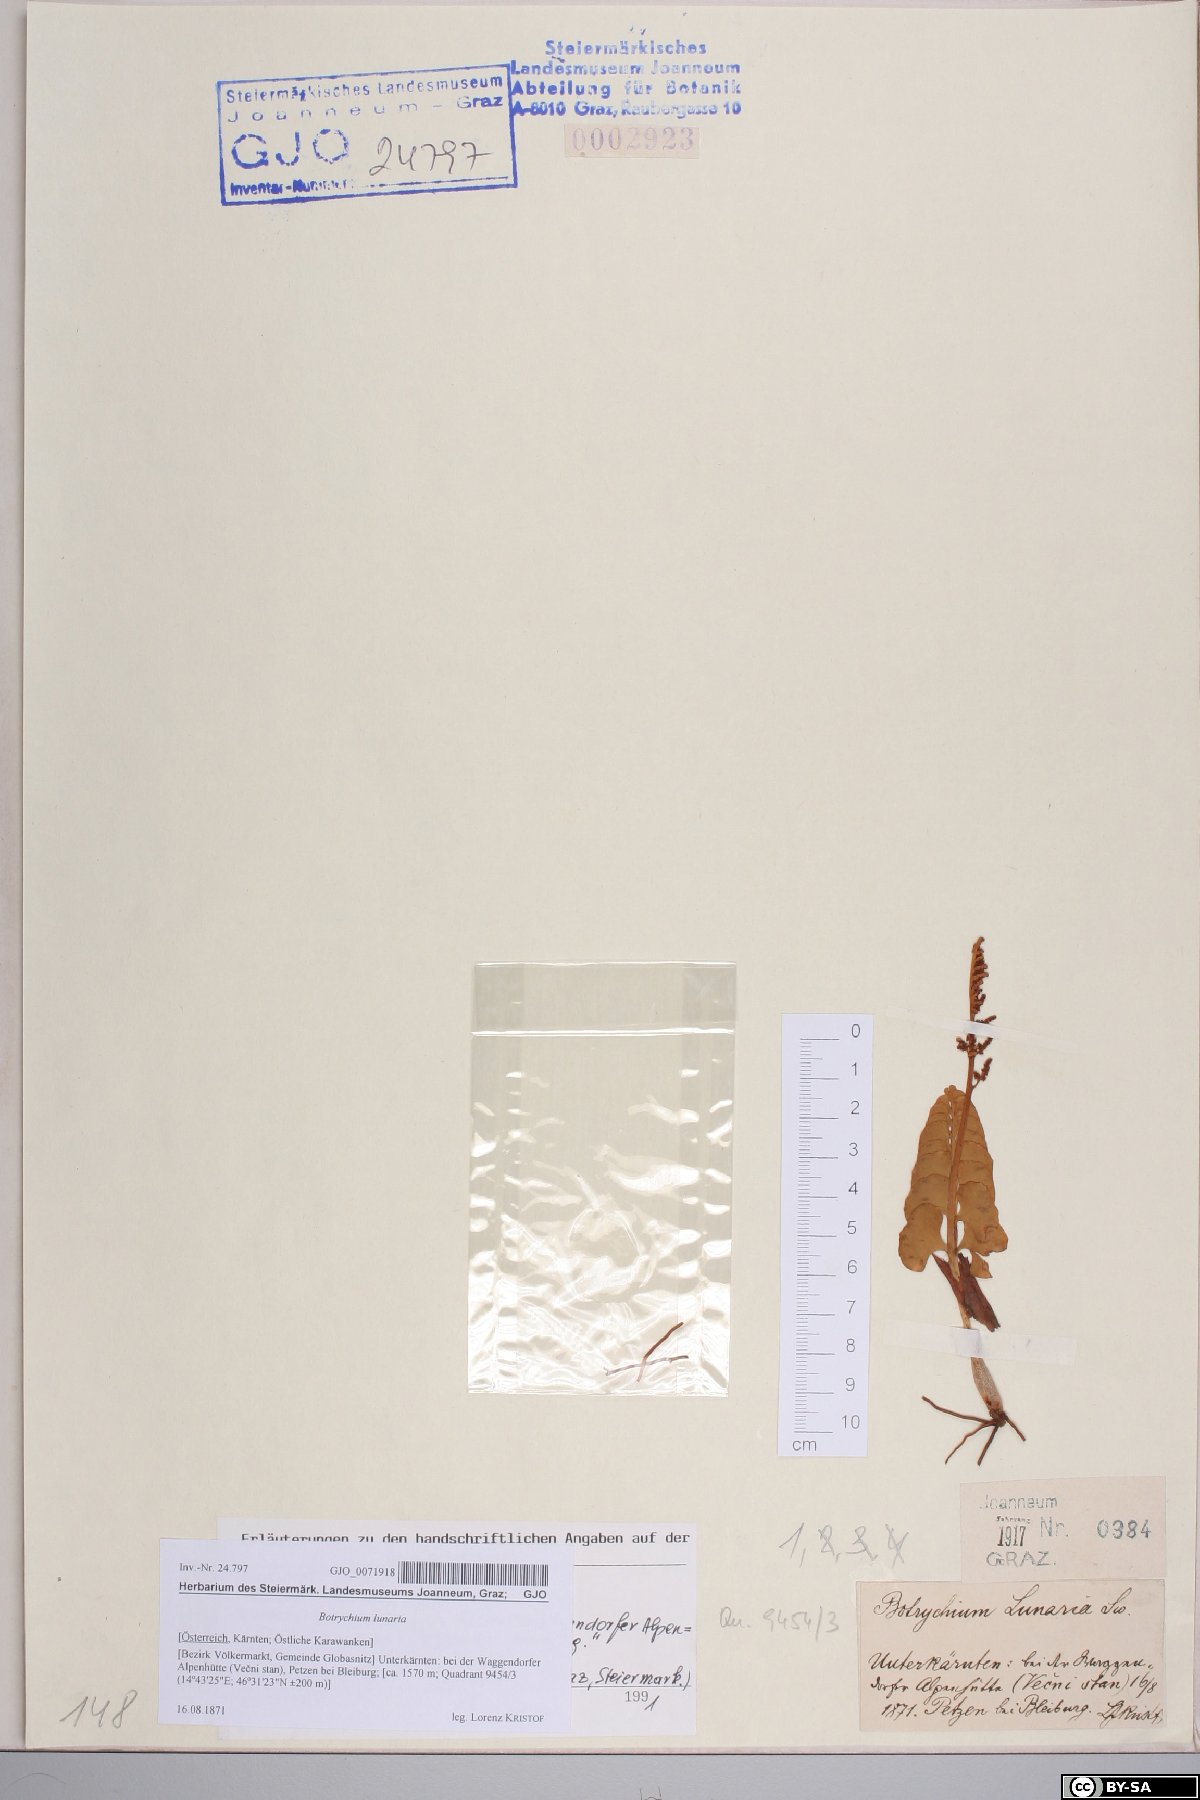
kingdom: Plantae
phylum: Tracheophyta
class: Polypodiopsida
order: Ophioglossales
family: Ophioglossaceae
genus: Botrychium
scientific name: Botrychium lunaria
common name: Moonwort
